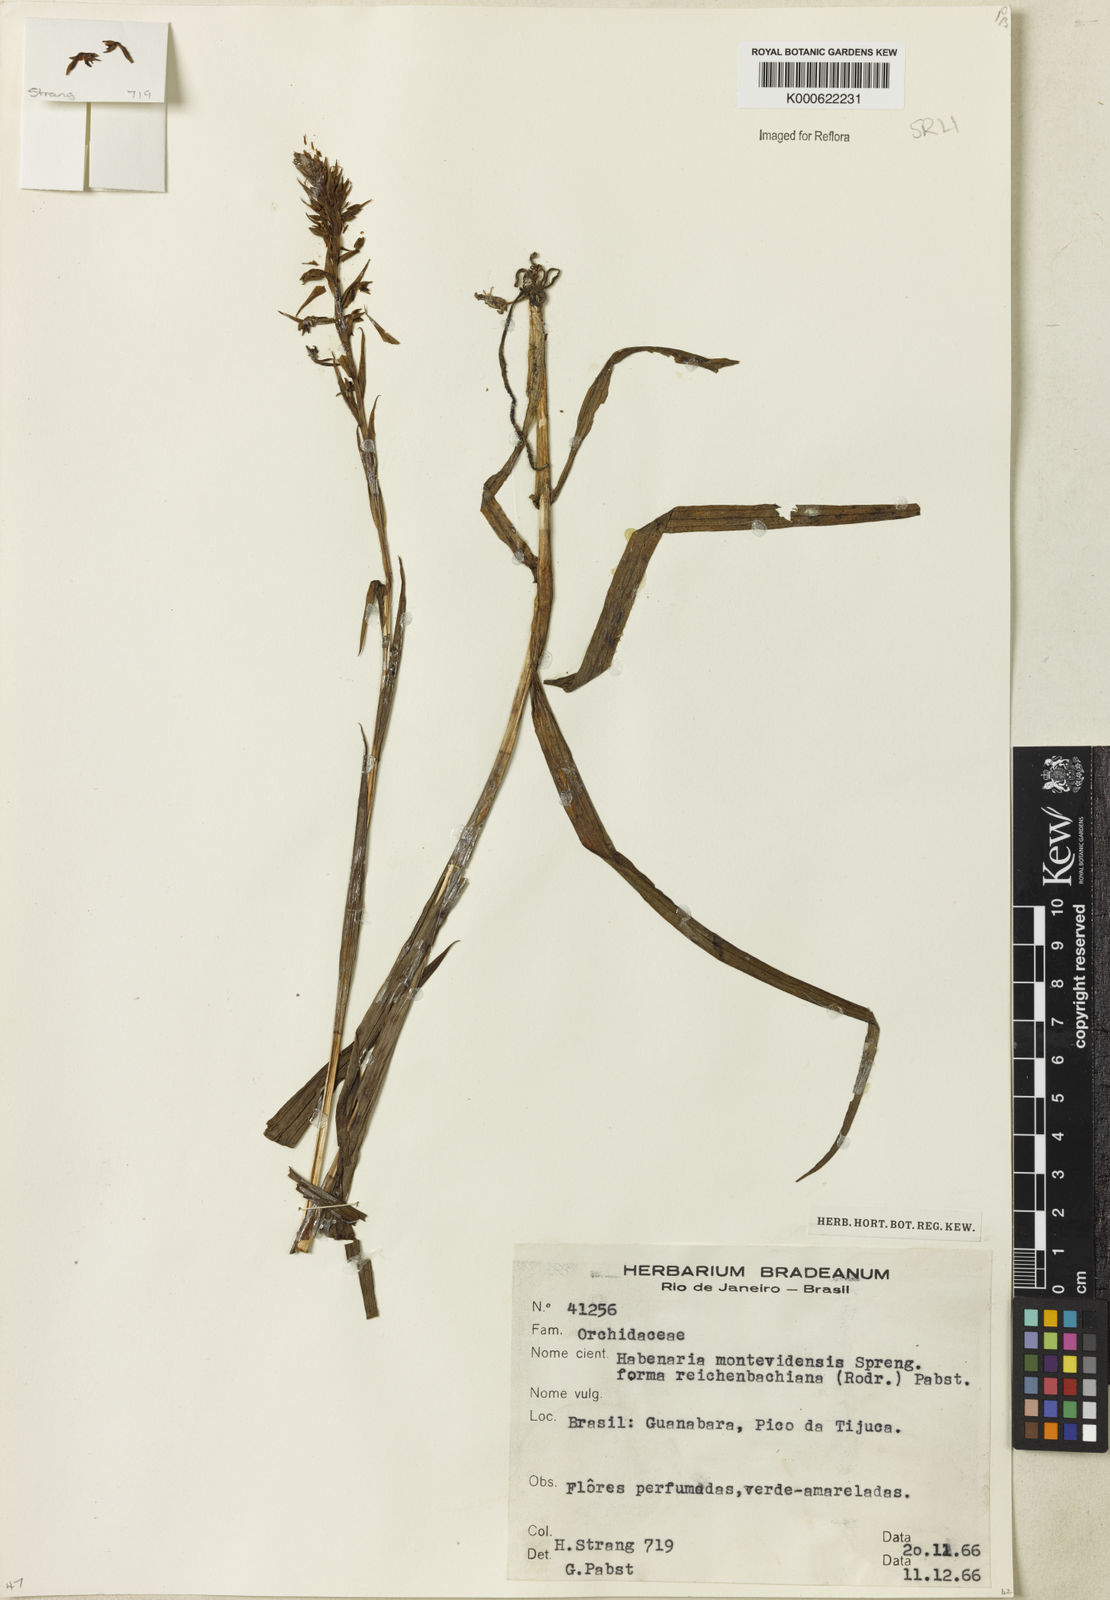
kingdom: Plantae
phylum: Tracheophyta
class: Liliopsida
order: Asparagales
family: Orchidaceae
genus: Habenaria
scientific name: Habenaria parviflora
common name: Small flowered habenaria
